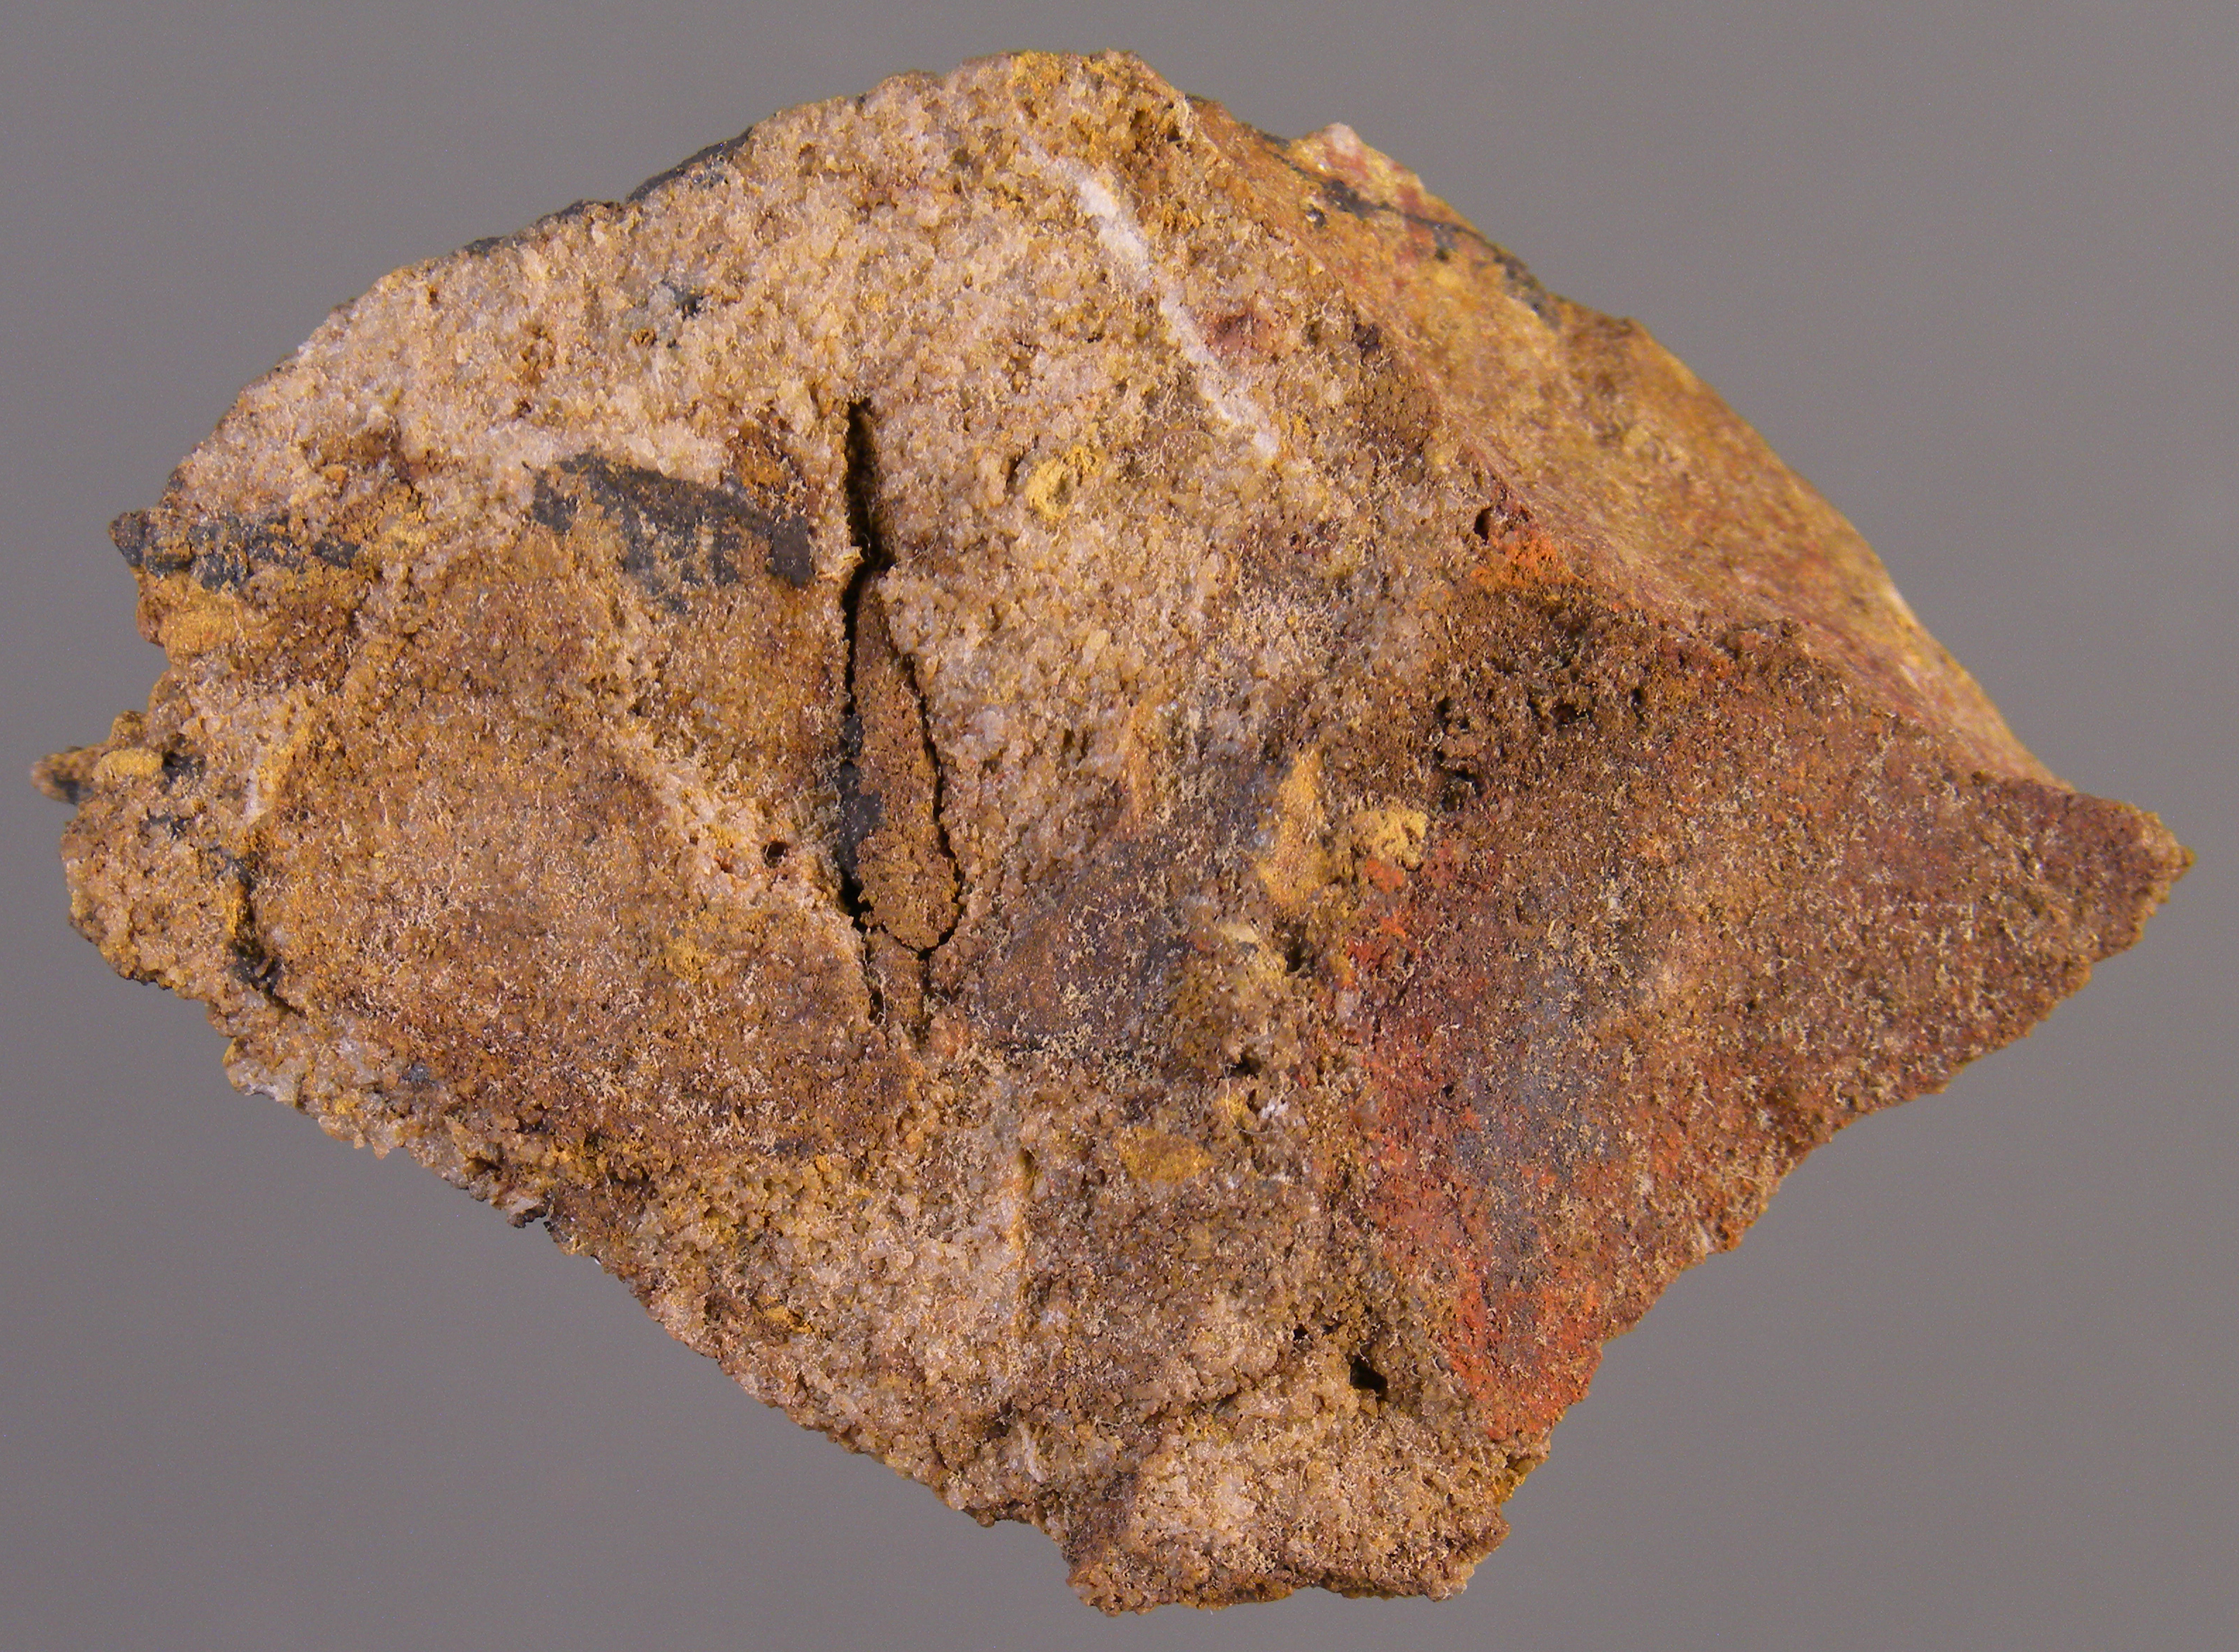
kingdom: Animalia
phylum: Mollusca
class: Cricoconarida
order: Tentaculitida
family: Tentaculitidae
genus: Tentaculites
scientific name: Tentaculites
